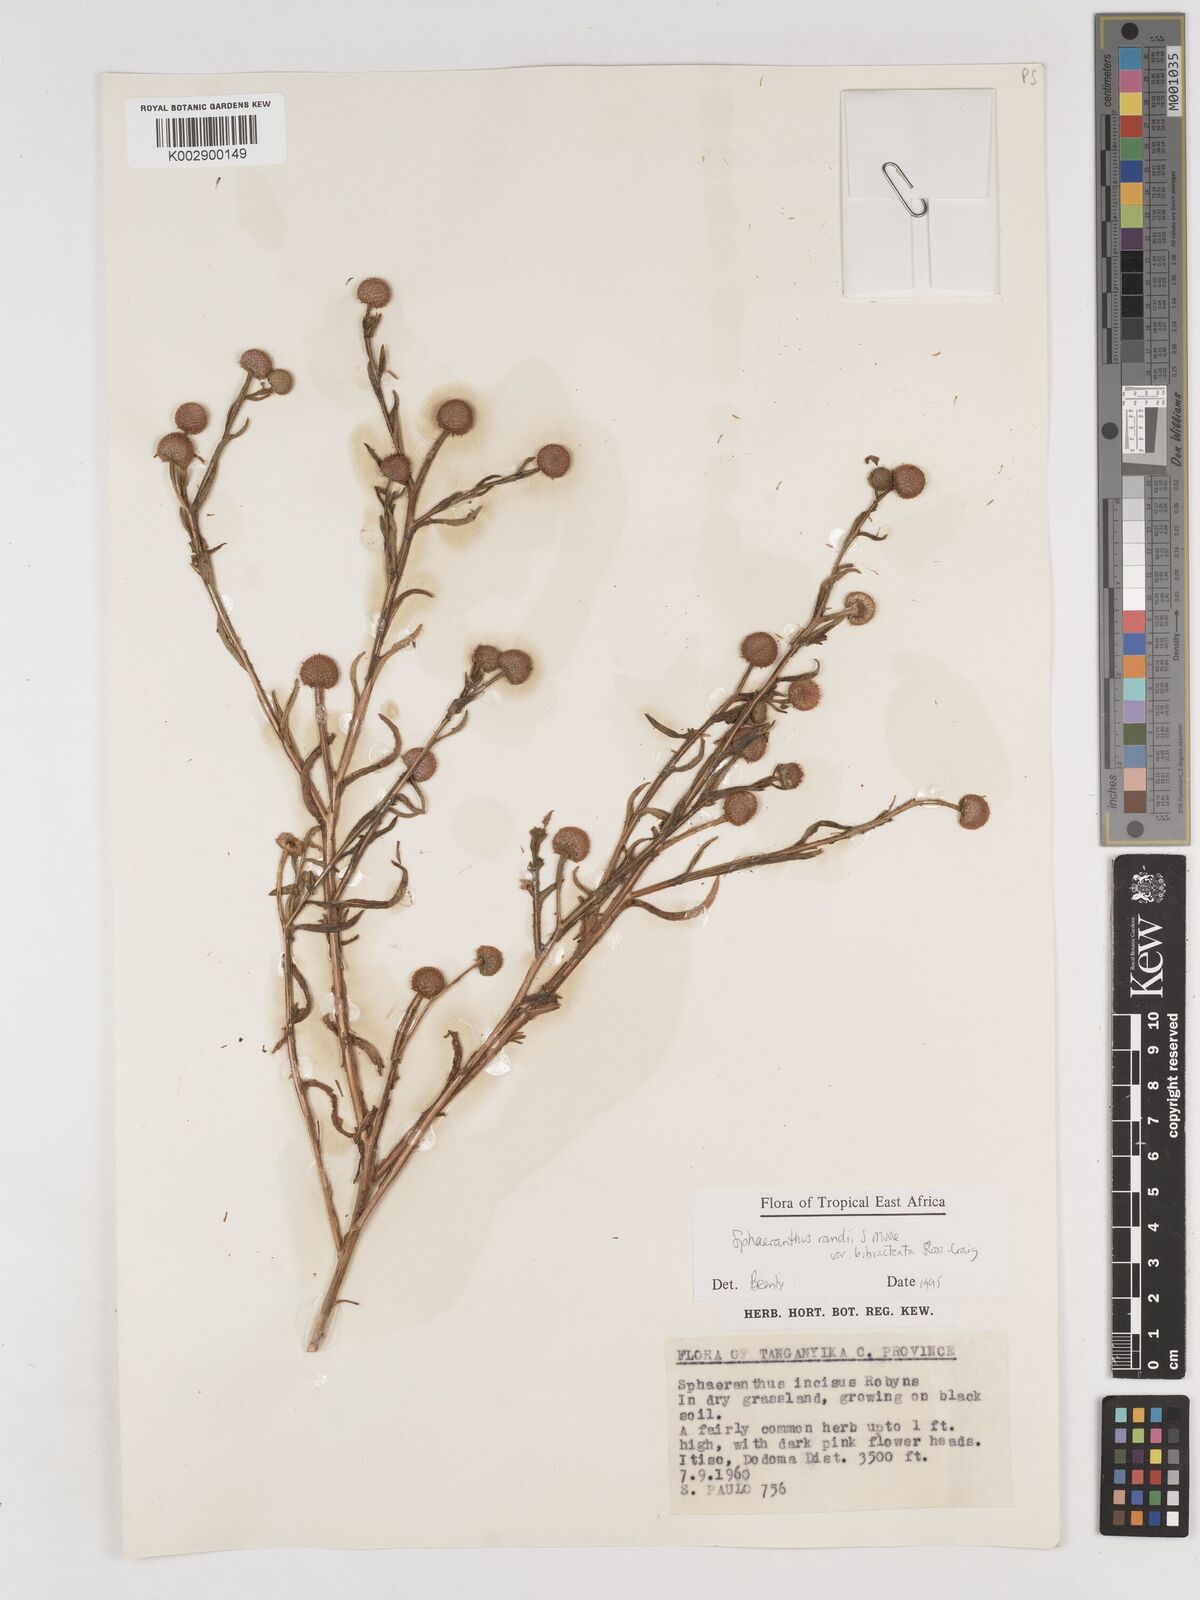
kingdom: Plantae
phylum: Tracheophyta
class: Magnoliopsida
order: Asterales
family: Asteraceae
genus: Sphaeranthus
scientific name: Sphaeranthus randii
